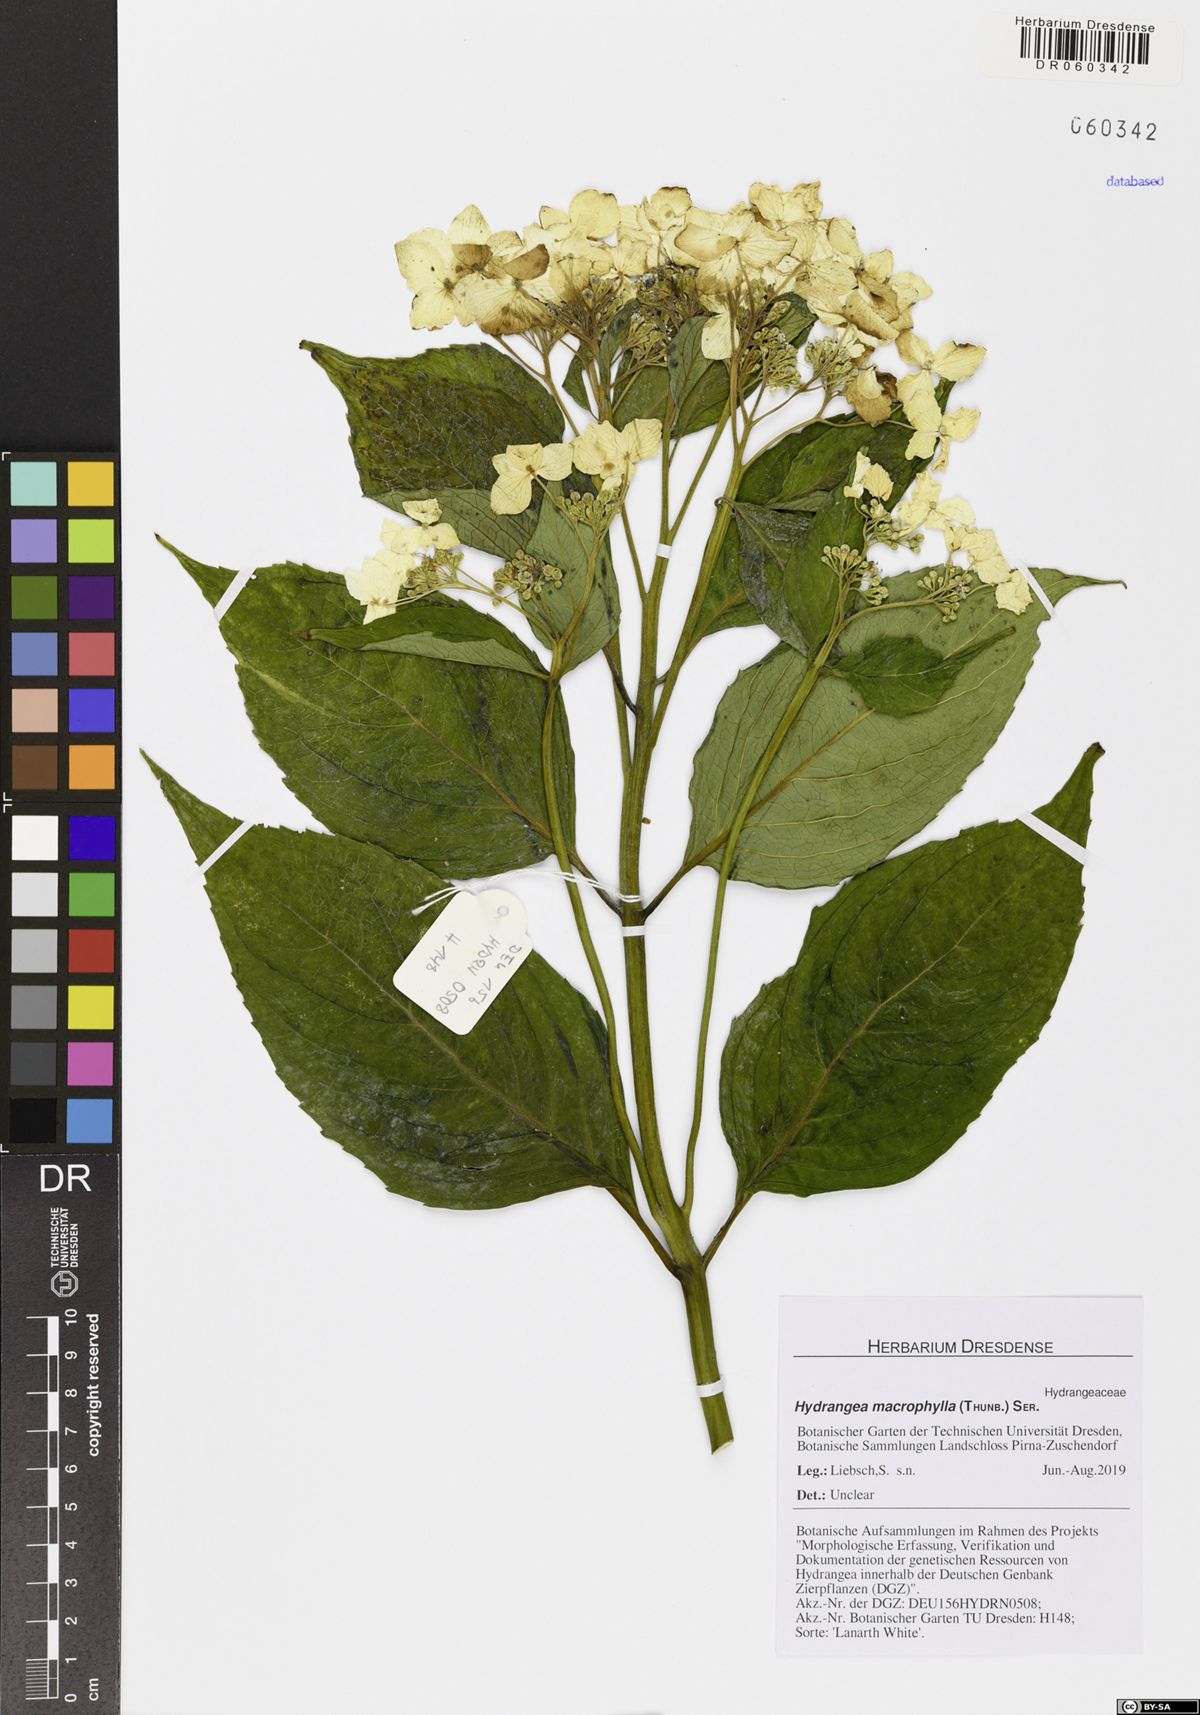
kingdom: Plantae
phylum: Tracheophyta
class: Magnoliopsida
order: Cornales
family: Hydrangeaceae
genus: Hydrangea
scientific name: Hydrangea macrophylla
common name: Hydrangea
